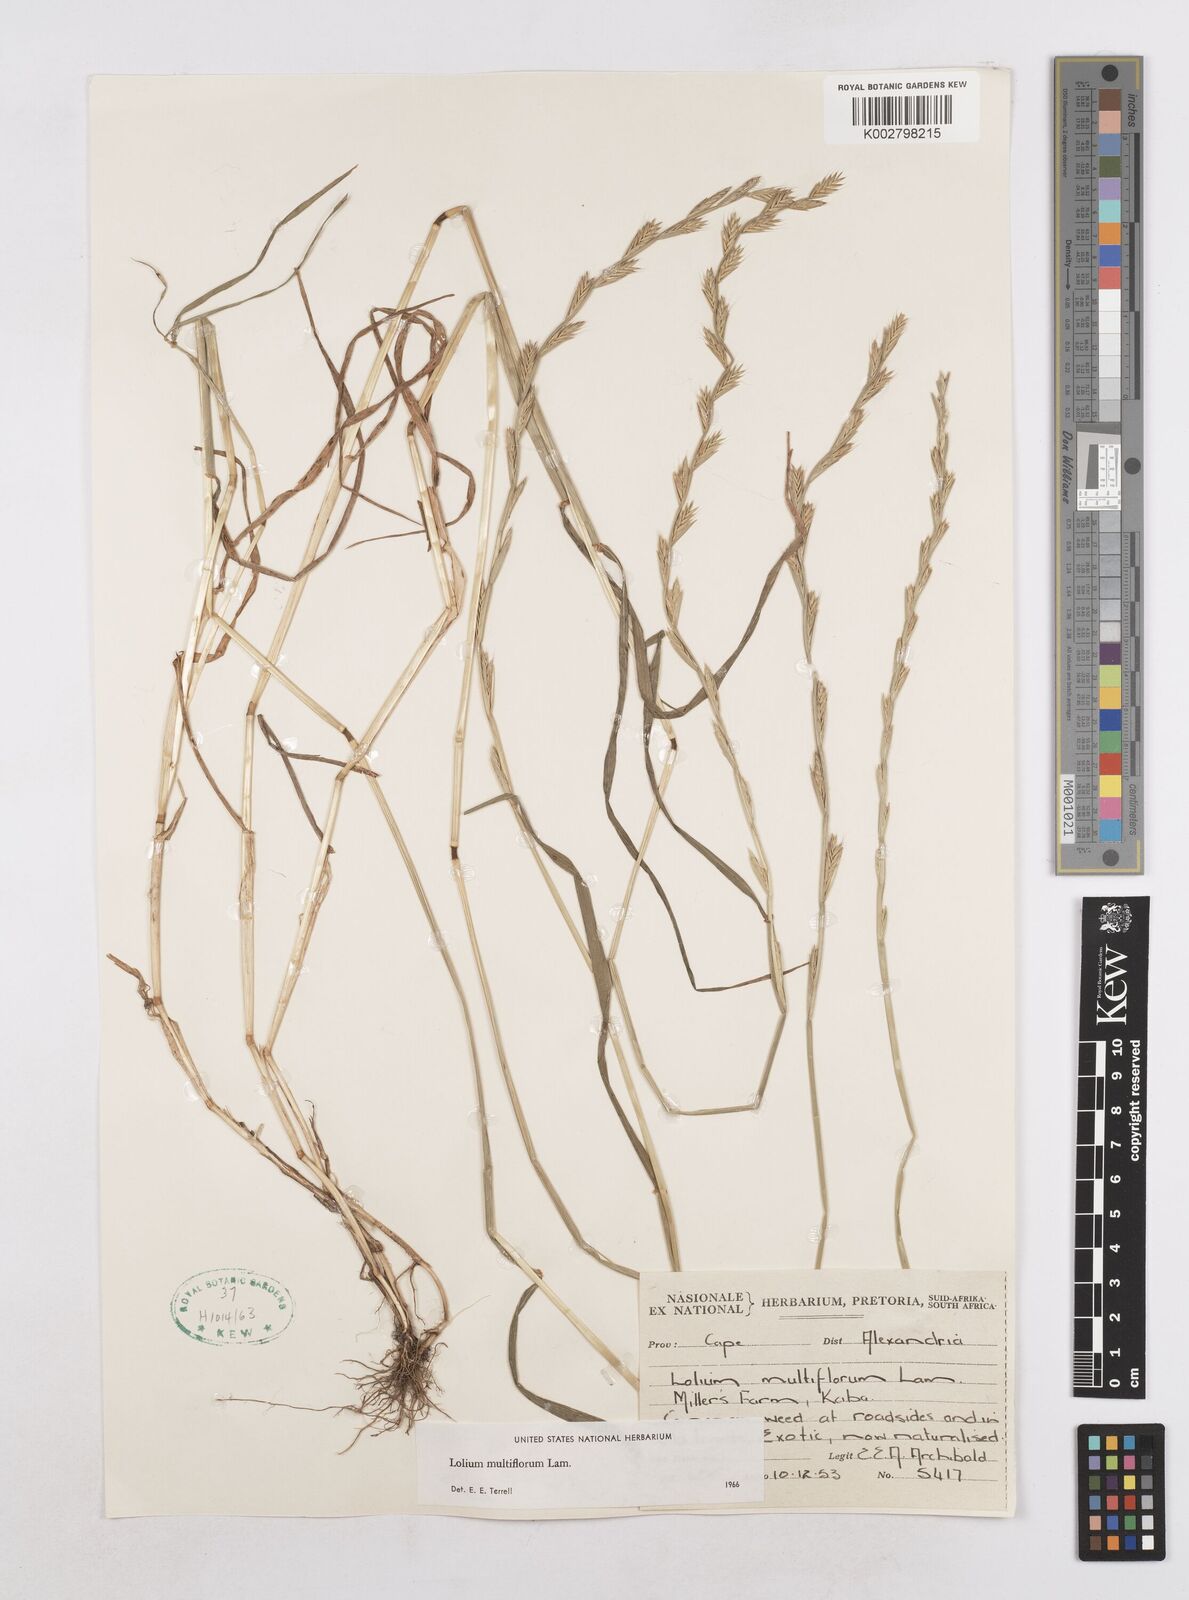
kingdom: Plantae
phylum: Tracheophyta
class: Liliopsida
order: Poales
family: Poaceae
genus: Lolium
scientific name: Lolium multiflorum
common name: Annual ryegrass
